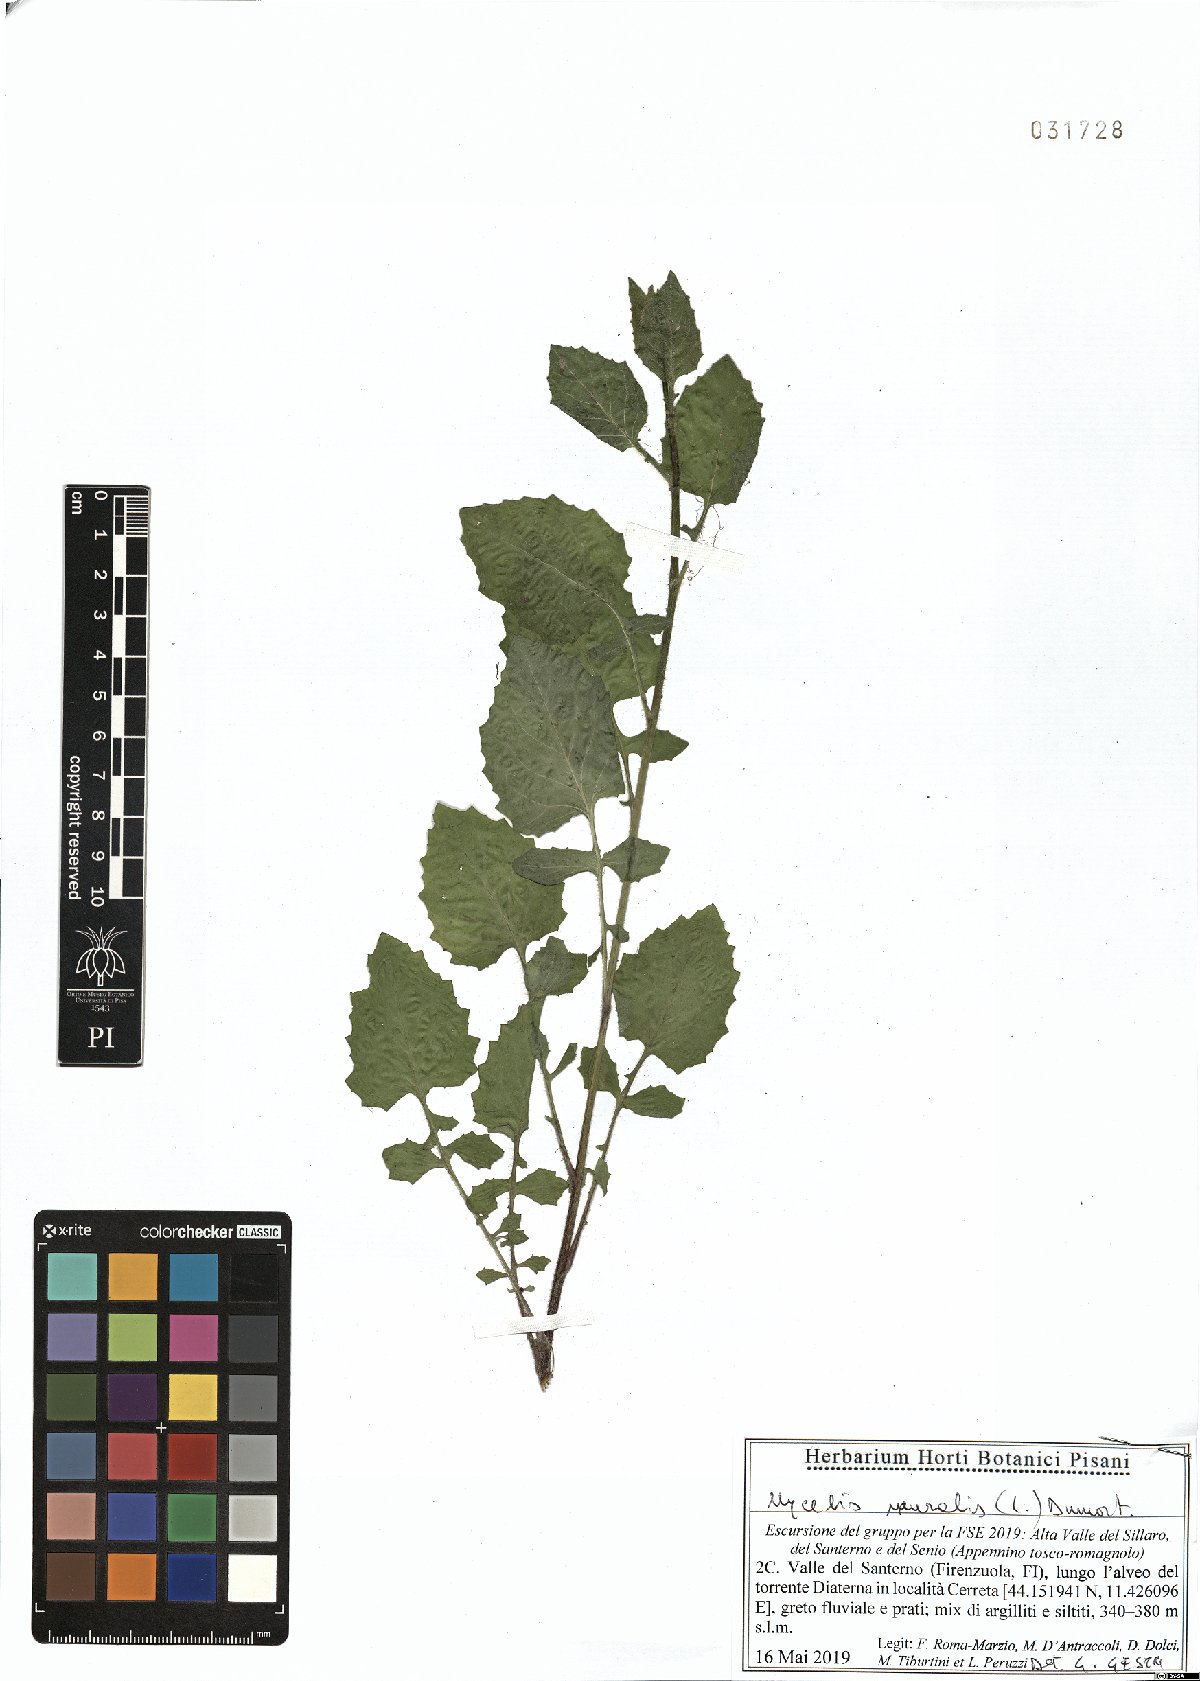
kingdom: Plantae
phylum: Tracheophyta
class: Magnoliopsida
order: Asterales
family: Asteraceae
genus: Mycelis
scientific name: Mycelis muralis
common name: Wall lettuce
